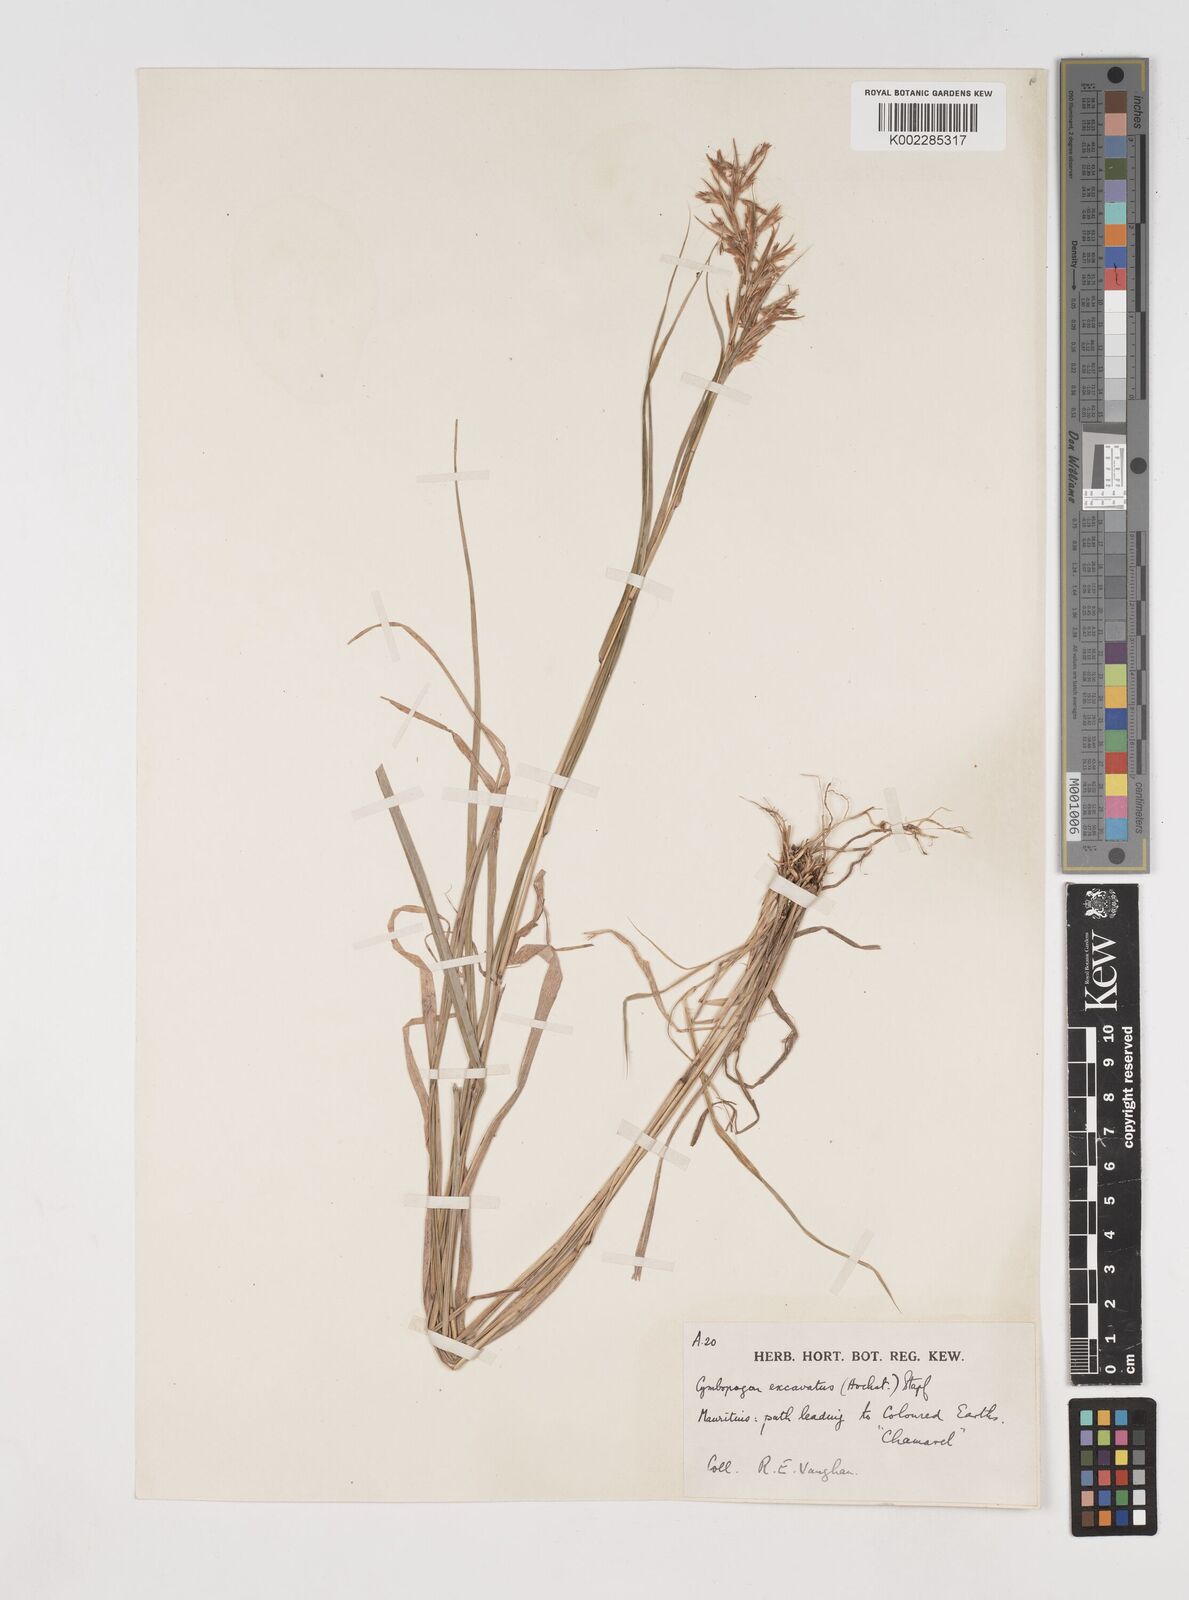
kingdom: Plantae
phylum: Tracheophyta
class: Liliopsida
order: Poales
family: Poaceae
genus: Cymbopogon
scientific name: Cymbopogon pruinosus
